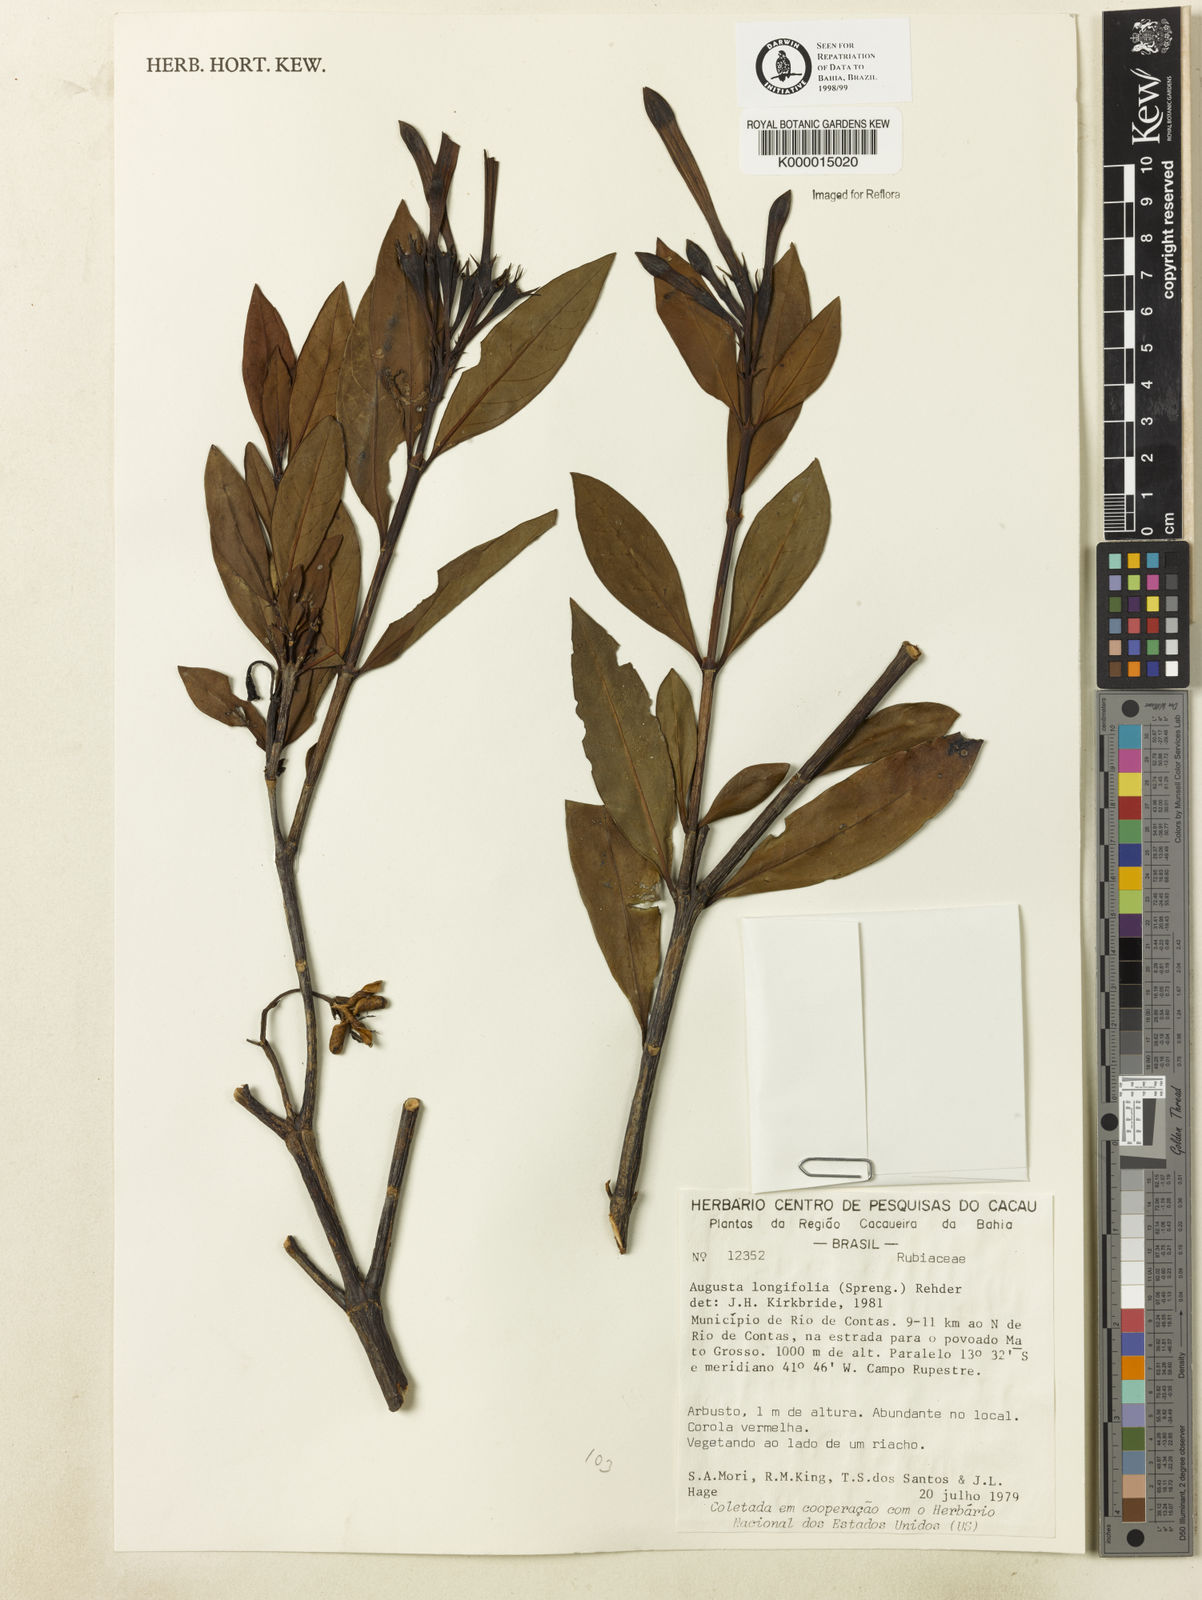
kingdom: Plantae
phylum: Tracheophyta
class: Magnoliopsida
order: Gentianales
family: Rubiaceae
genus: Augusta
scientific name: Augusta longifolia
